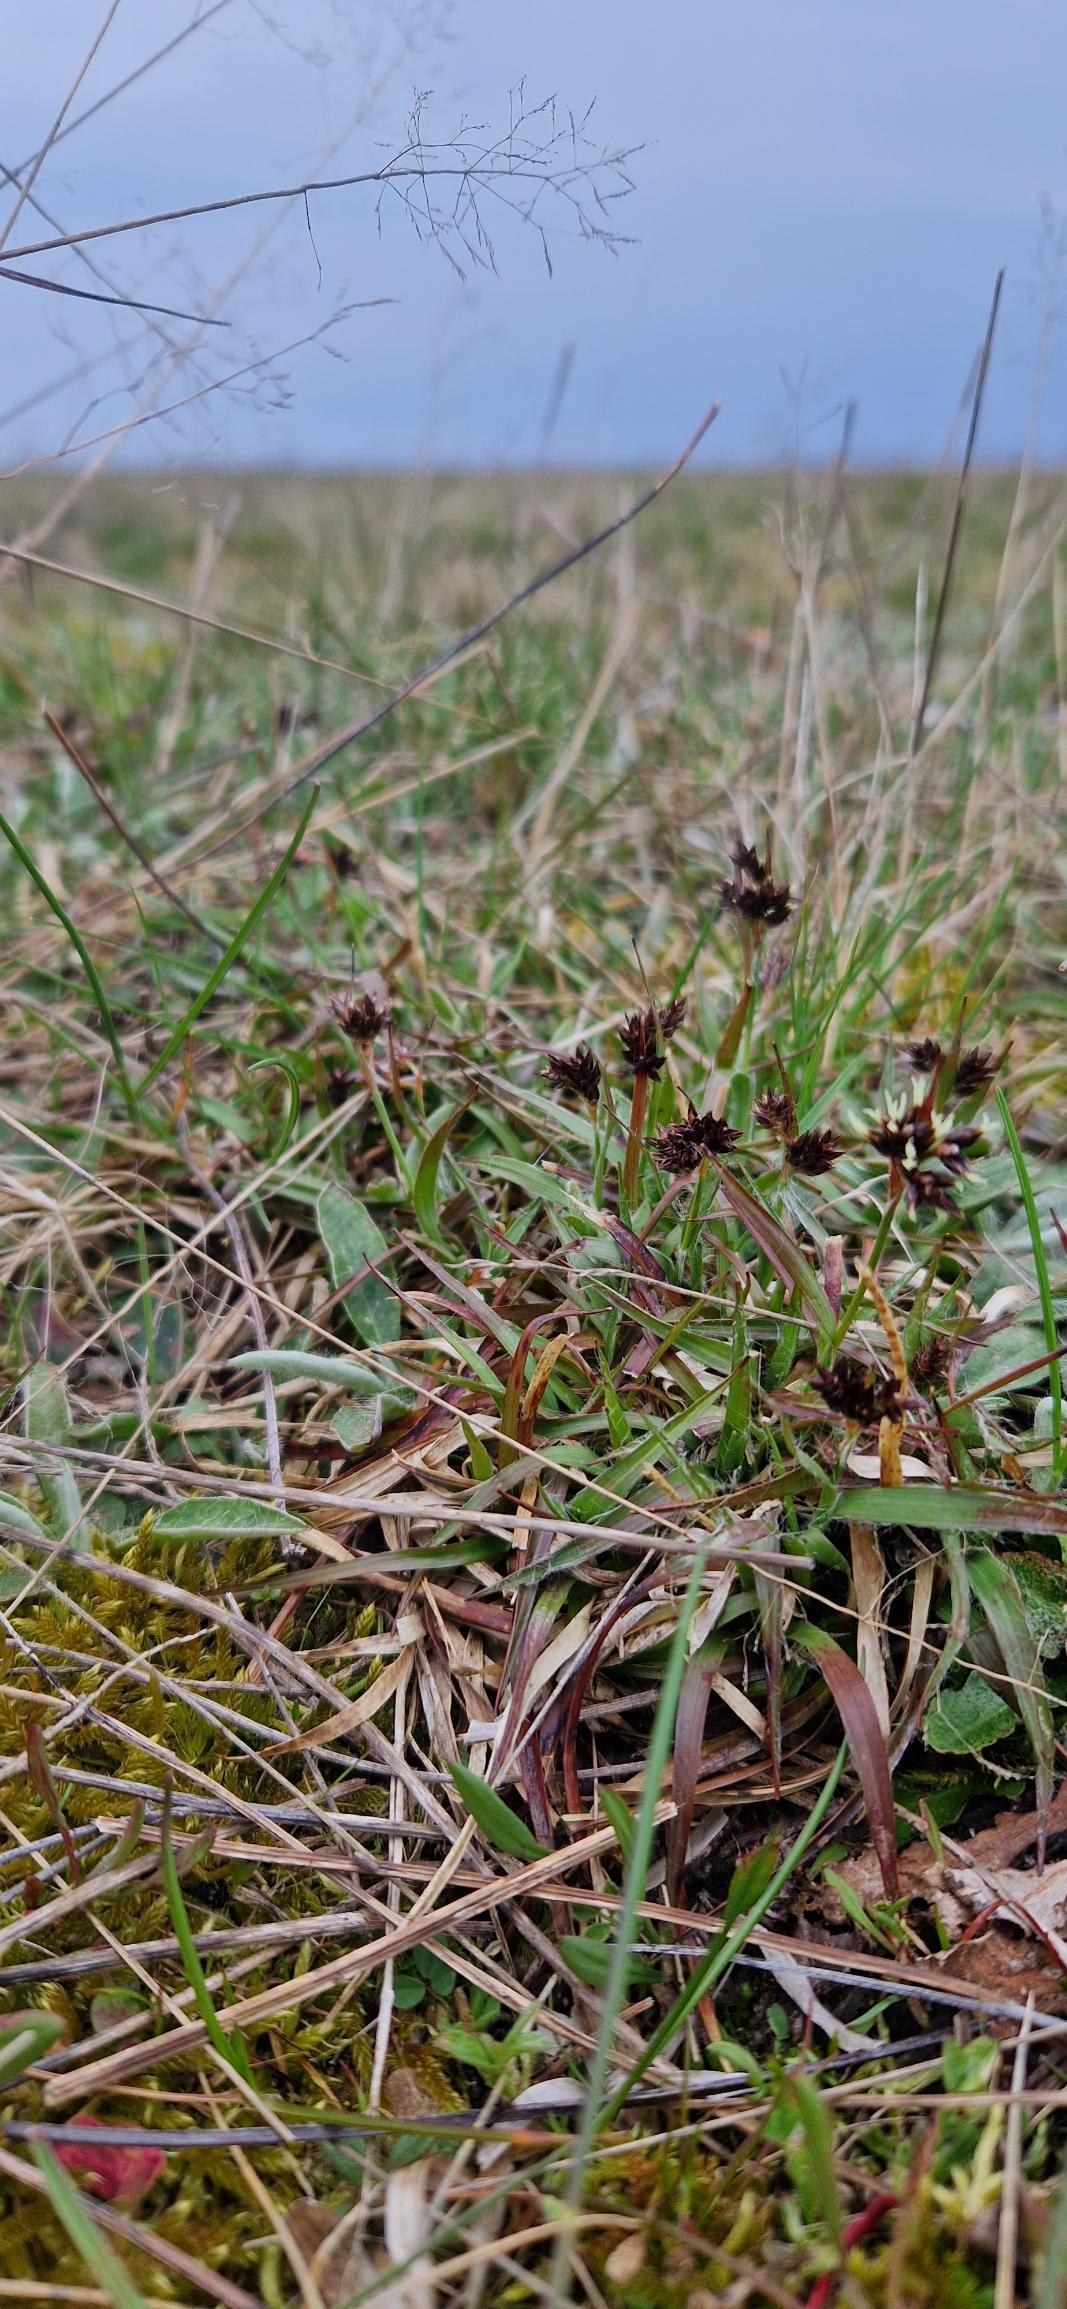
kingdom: Plantae
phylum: Tracheophyta
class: Liliopsida
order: Poales
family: Juncaceae
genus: Luzula
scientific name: Luzula campestris
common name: Mark-frytle
